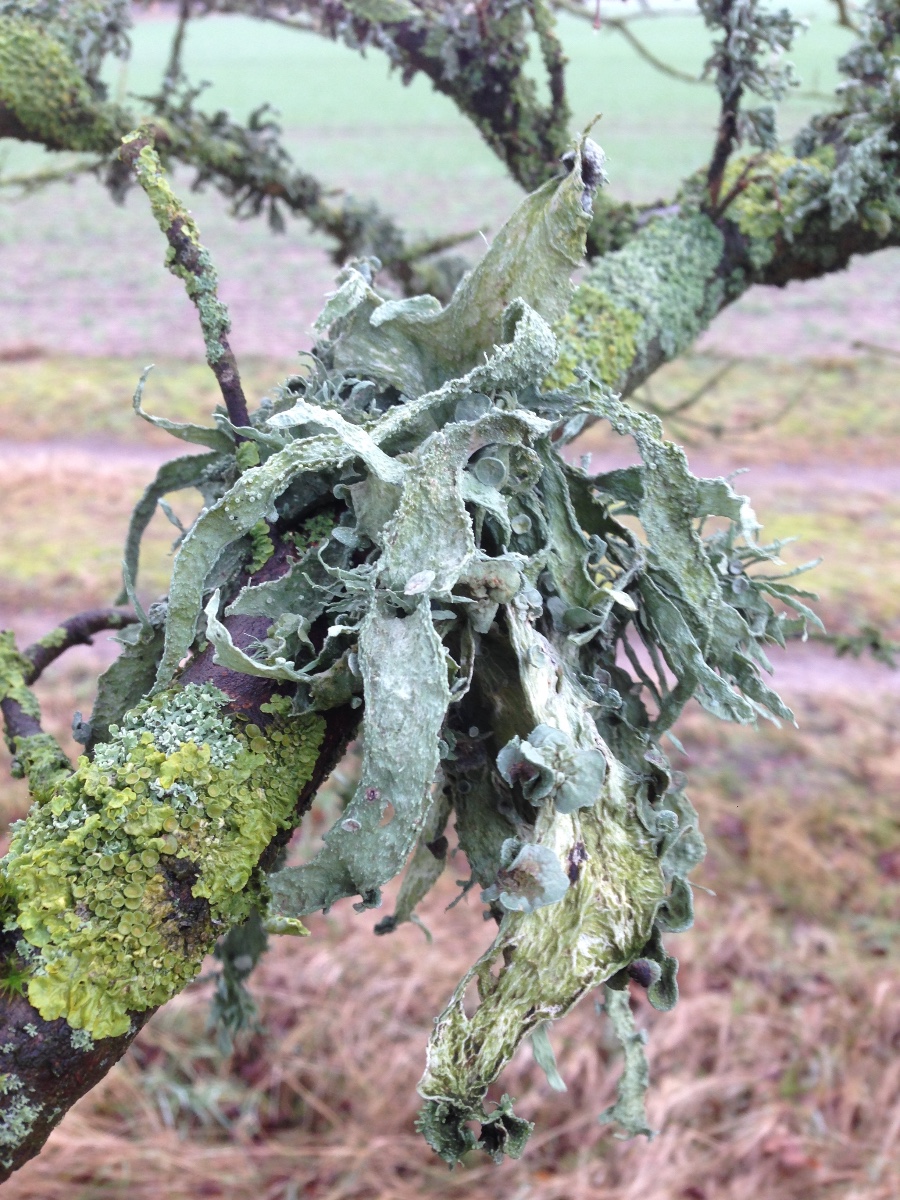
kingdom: Fungi
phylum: Ascomycota
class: Lecanoromycetes
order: Lecanorales
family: Ramalinaceae
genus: Ramalina
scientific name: Ramalina fraxinea
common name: stor grenlav
